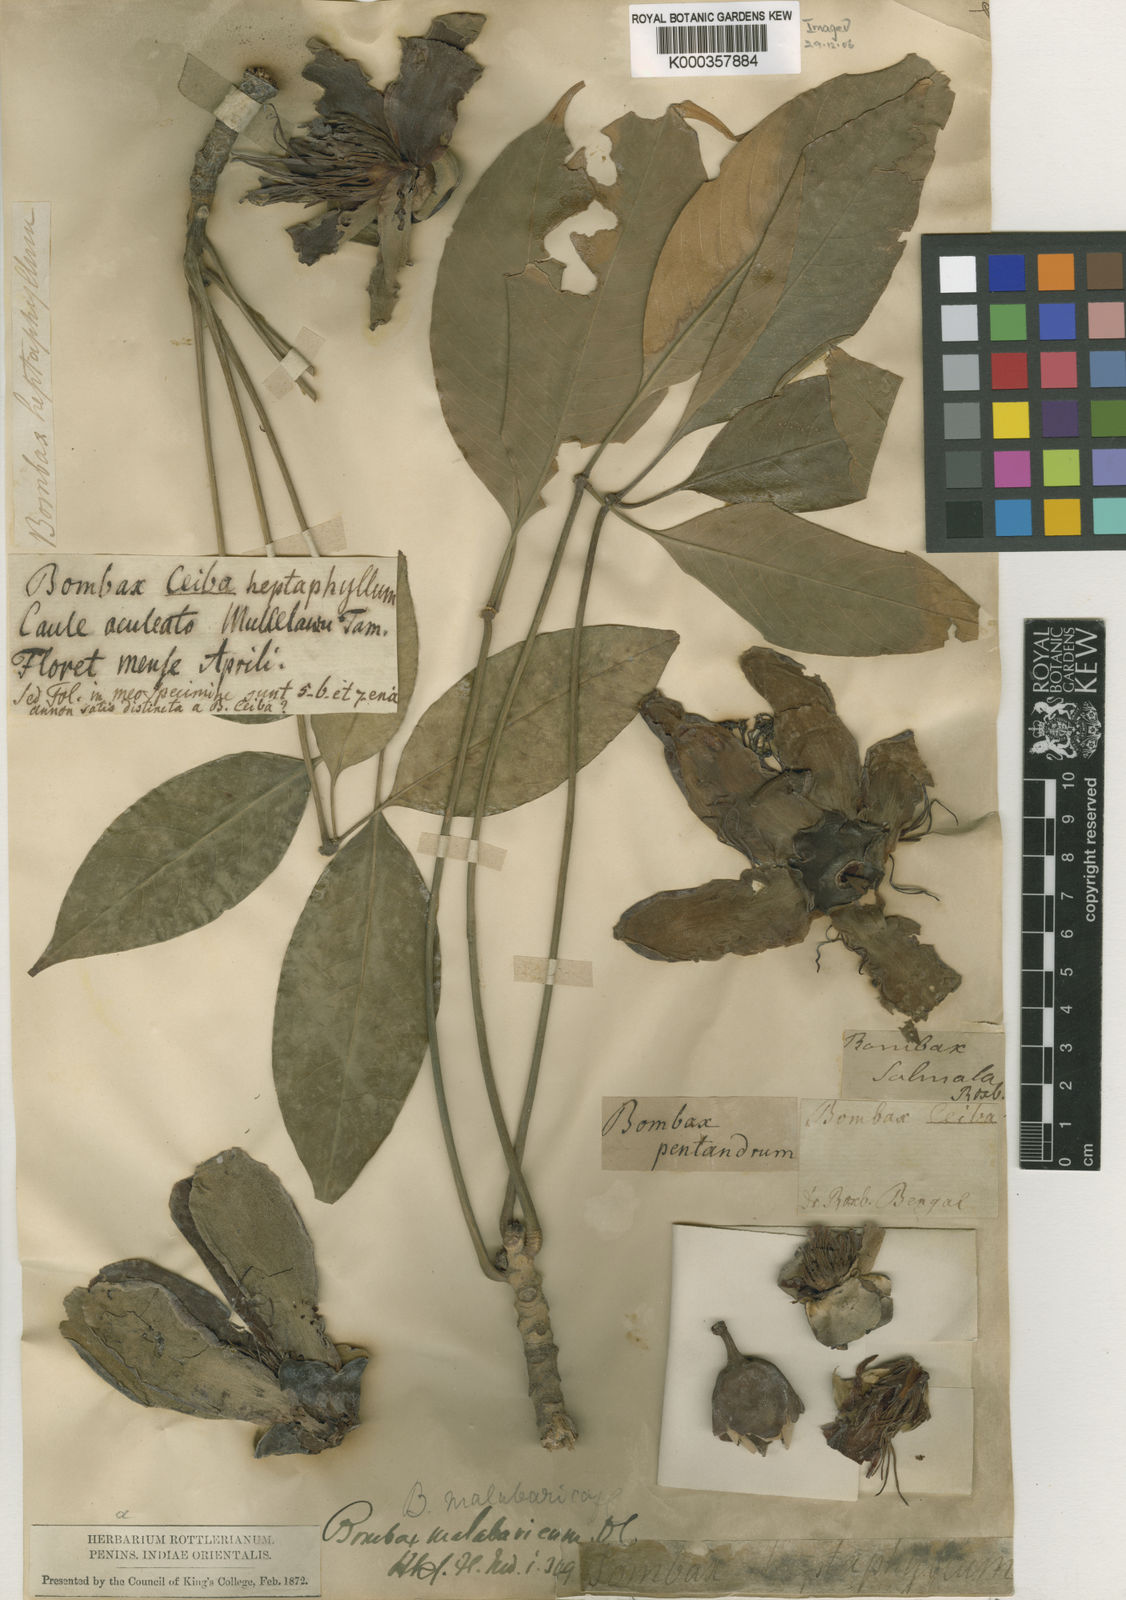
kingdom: Plantae
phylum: Tracheophyta
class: Magnoliopsida
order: Malvales
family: Malvaceae
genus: Bombax
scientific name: Bombax ceiba
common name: Northern-cottonwood
